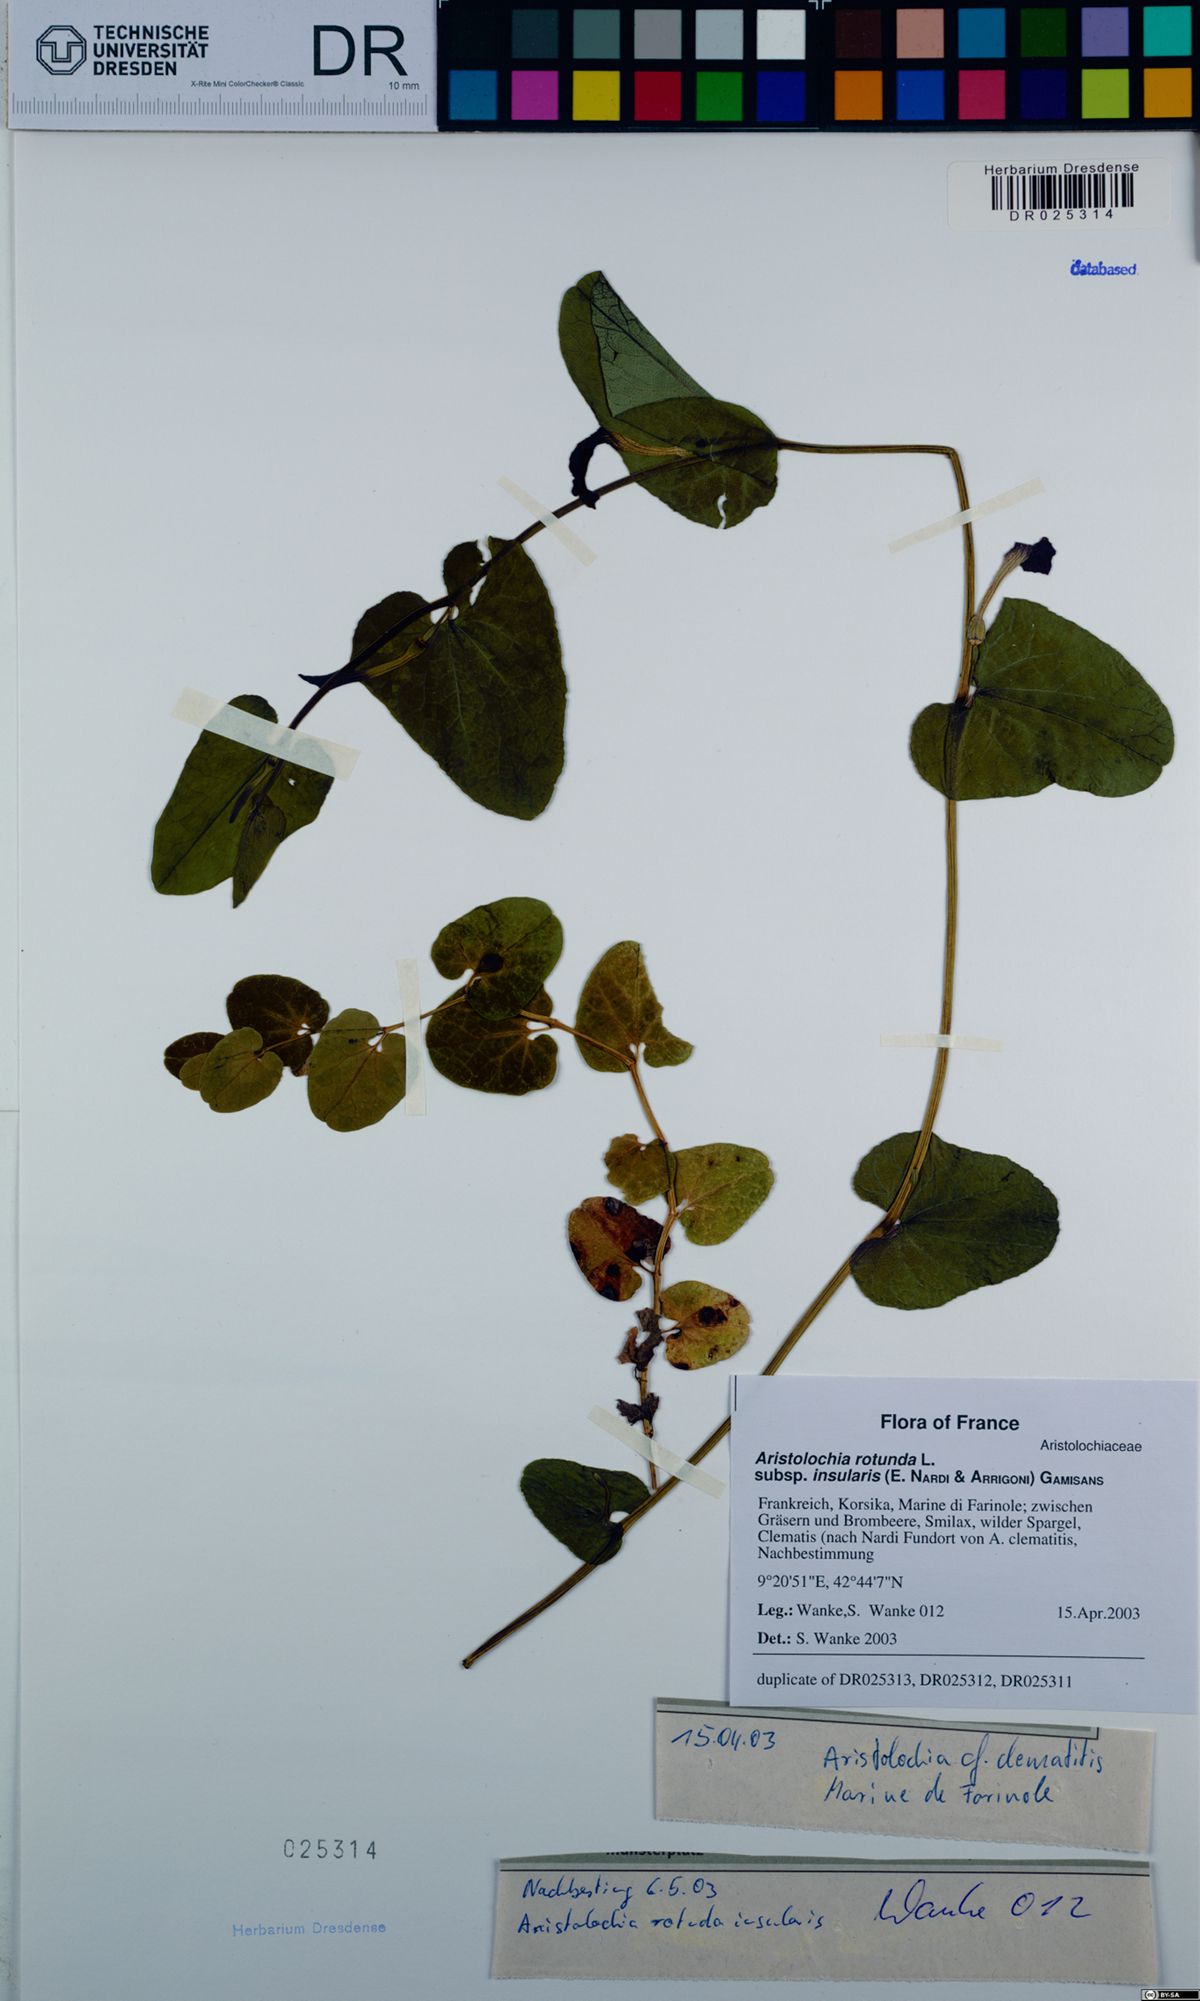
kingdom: Plantae
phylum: Tracheophyta
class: Magnoliopsida
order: Piperales
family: Aristolochiaceae
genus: Aristolochia
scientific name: Aristolochia rotunda
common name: Smearwort
